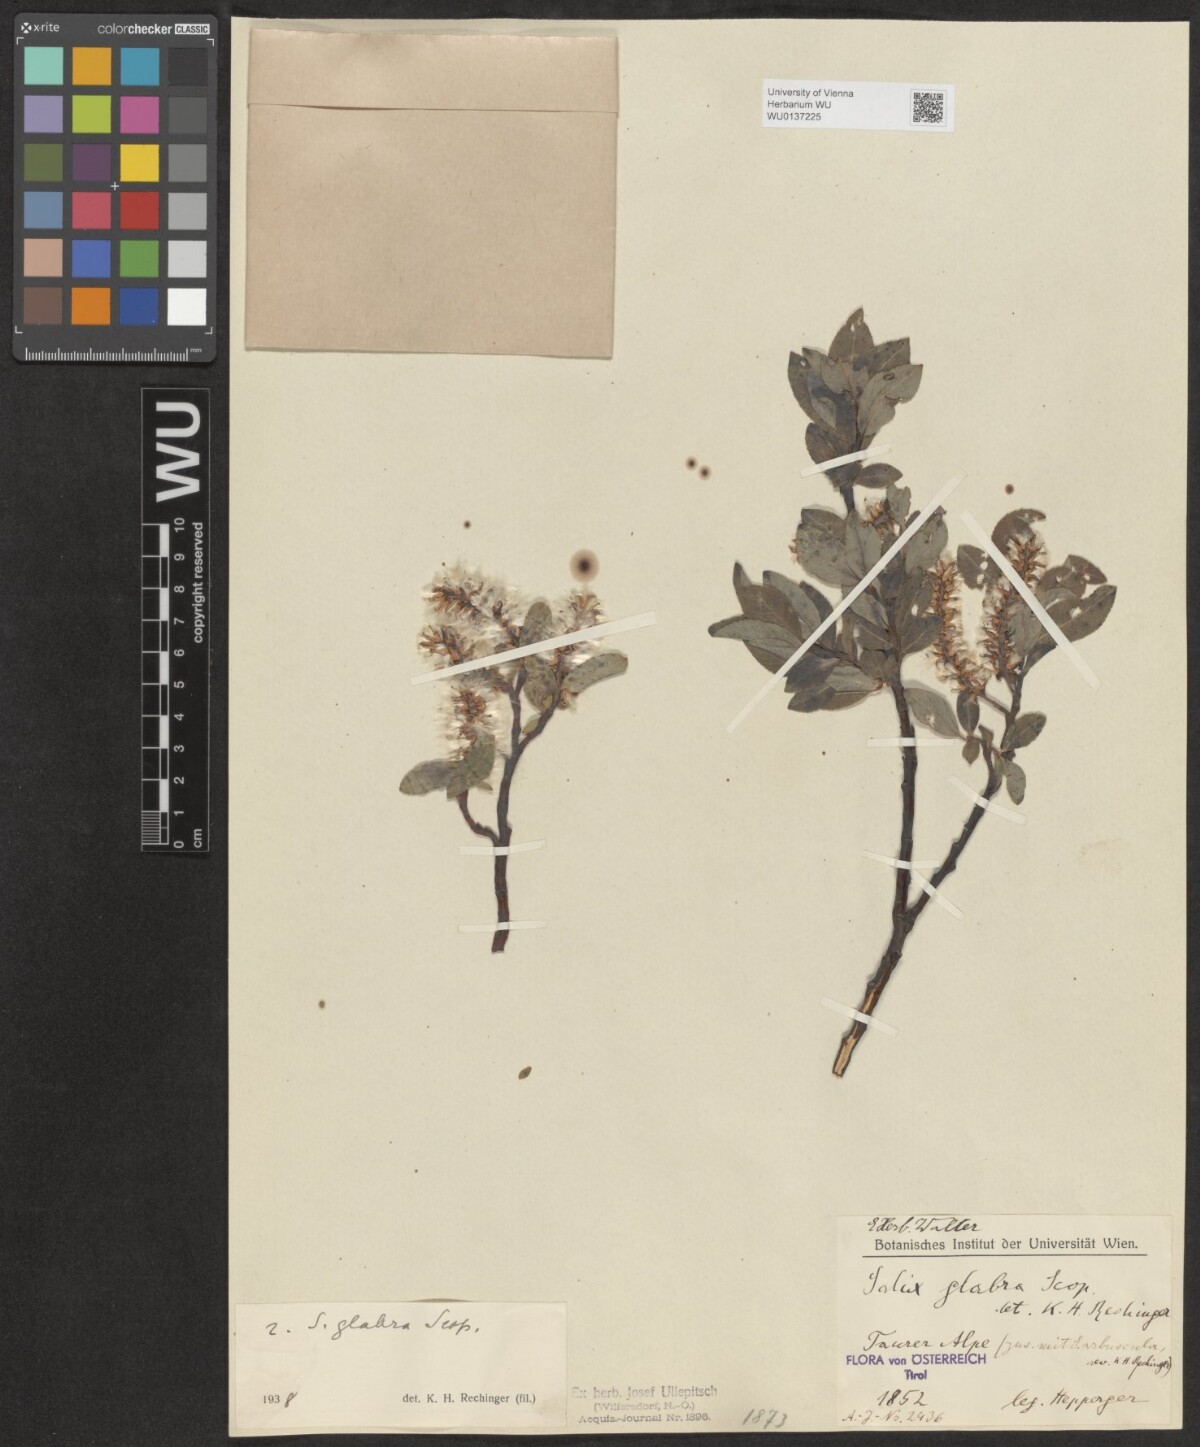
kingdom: Plantae
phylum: Tracheophyta
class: Magnoliopsida
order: Malpighiales
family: Salicaceae
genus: Salix
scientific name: Salix glabra
